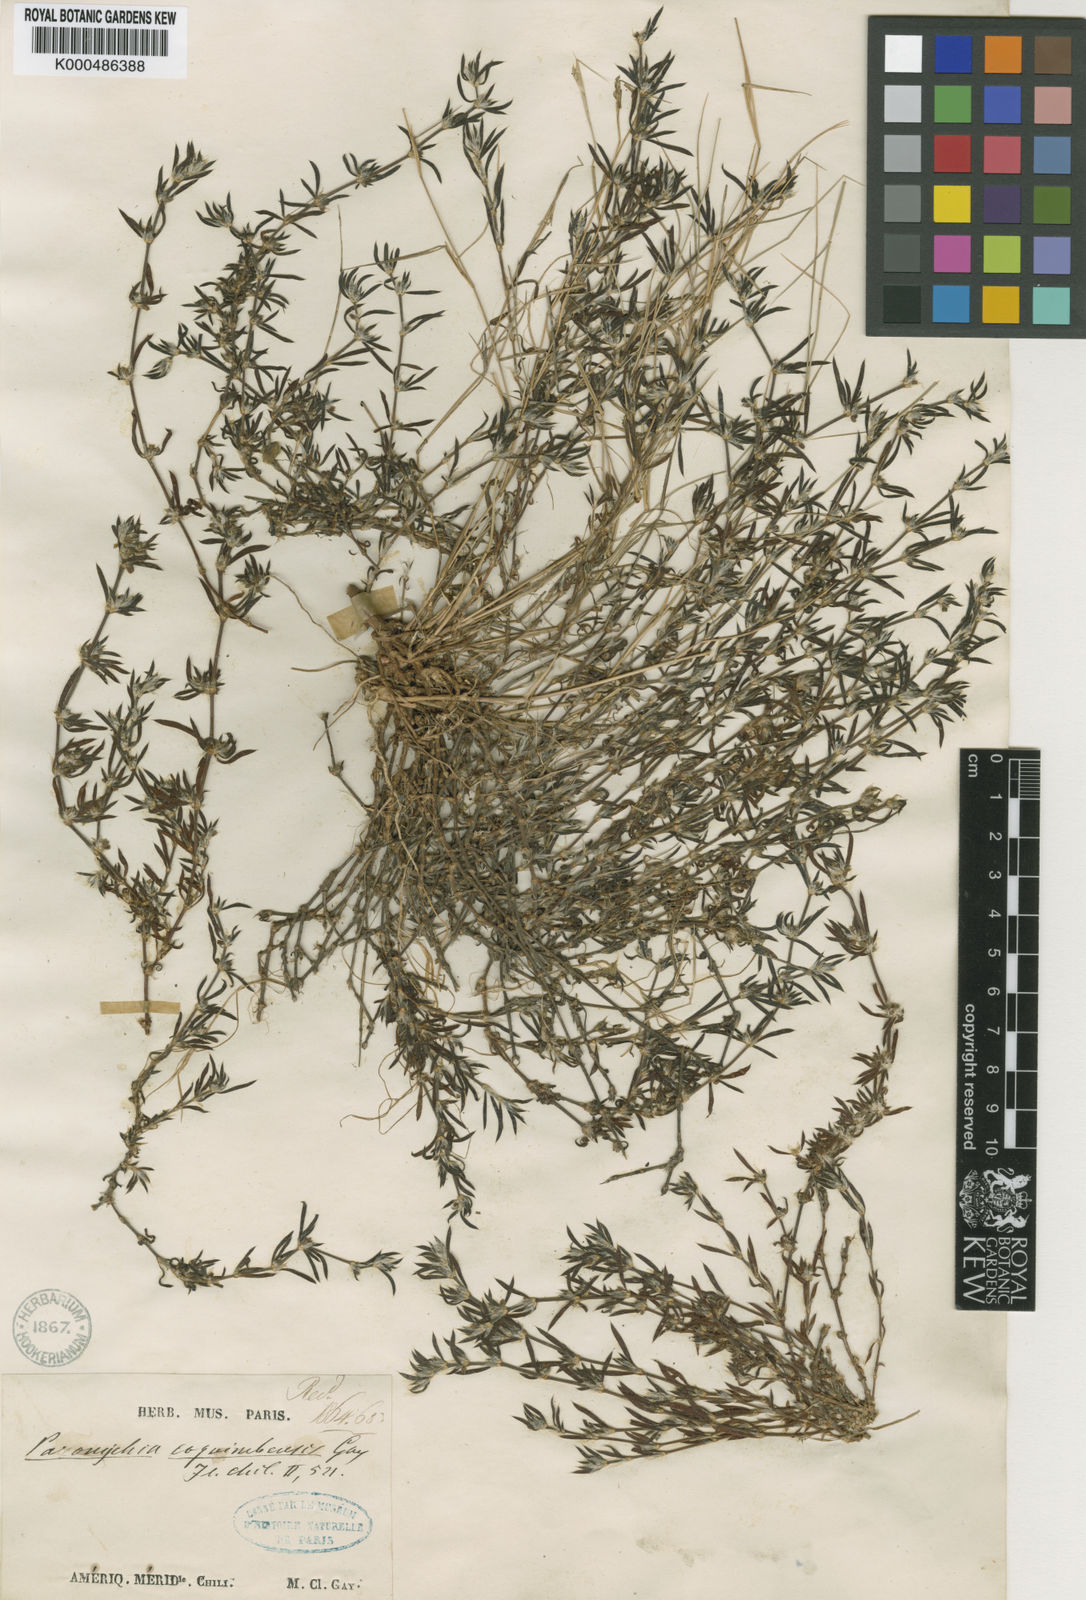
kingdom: Plantae
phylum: Tracheophyta
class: Magnoliopsida
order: Caryophyllales
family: Caryophyllaceae
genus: Paronychia
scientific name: Paronychia coquimbensis
